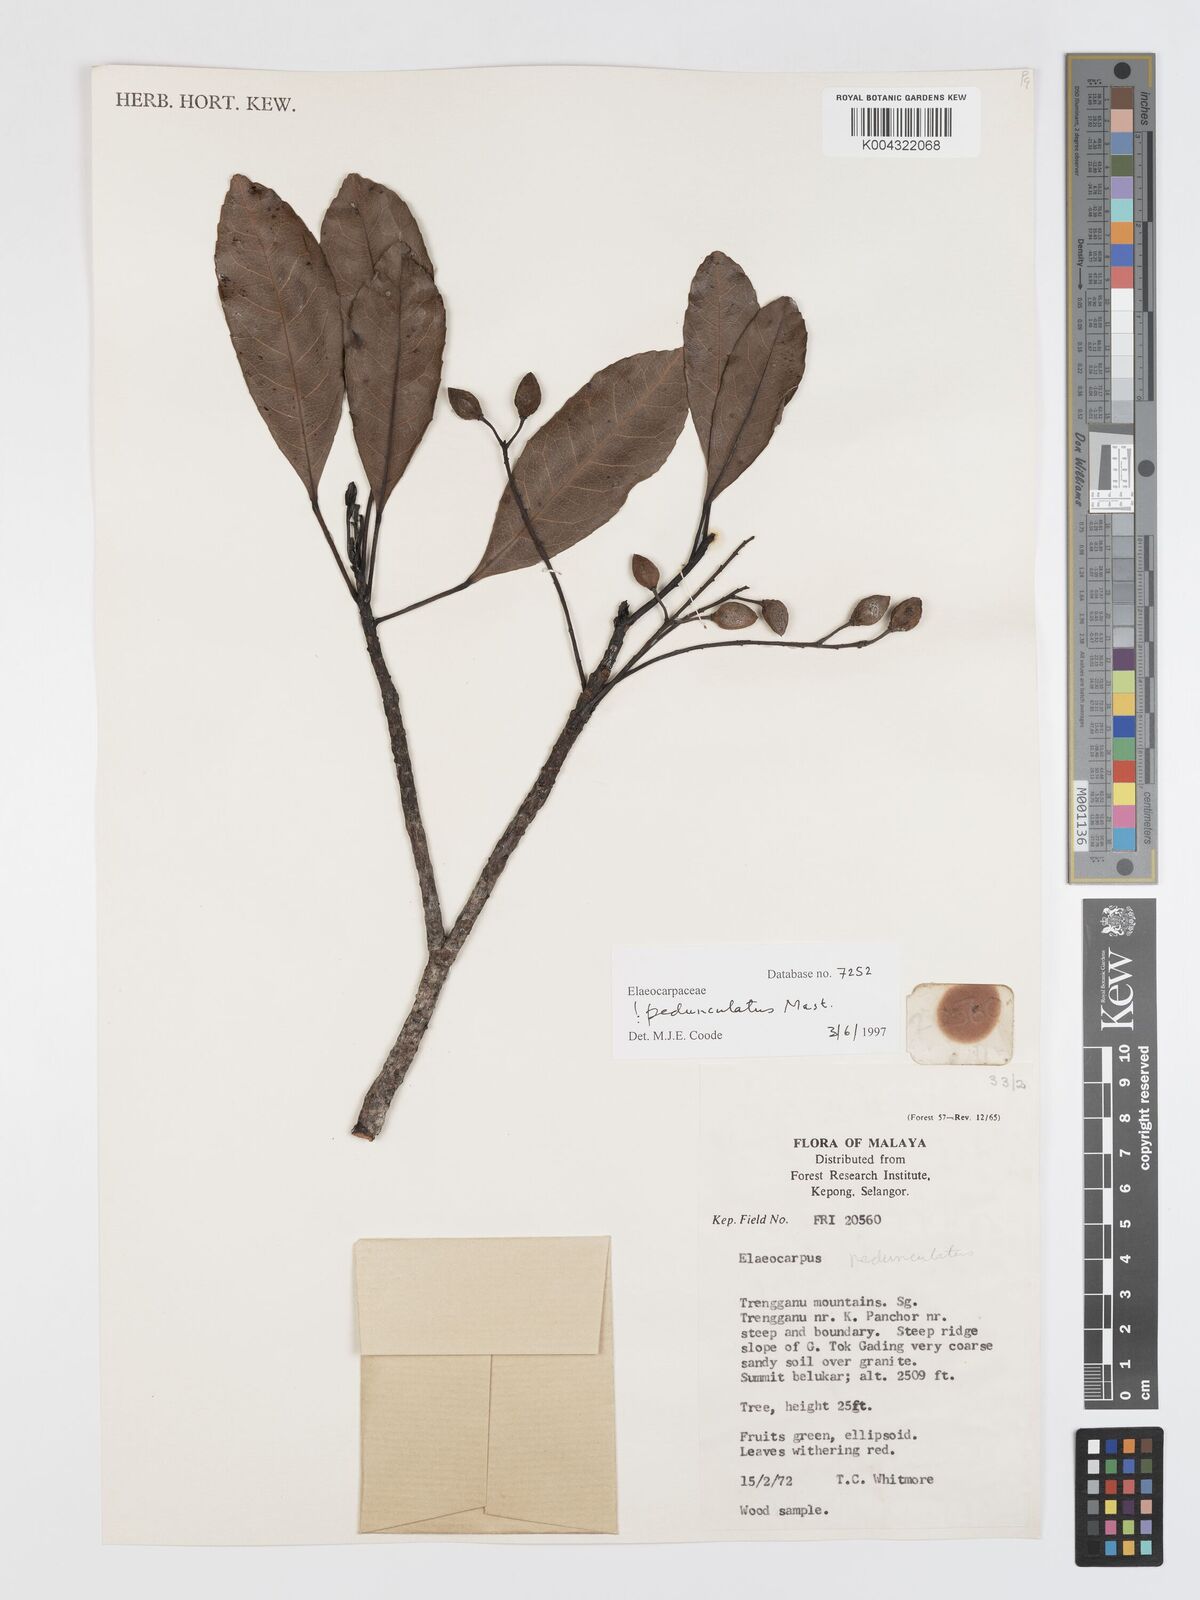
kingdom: Plantae
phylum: Tracheophyta
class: Magnoliopsida
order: Oxalidales
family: Elaeocarpaceae
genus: Elaeocarpus
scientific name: Elaeocarpus pedunculatus
